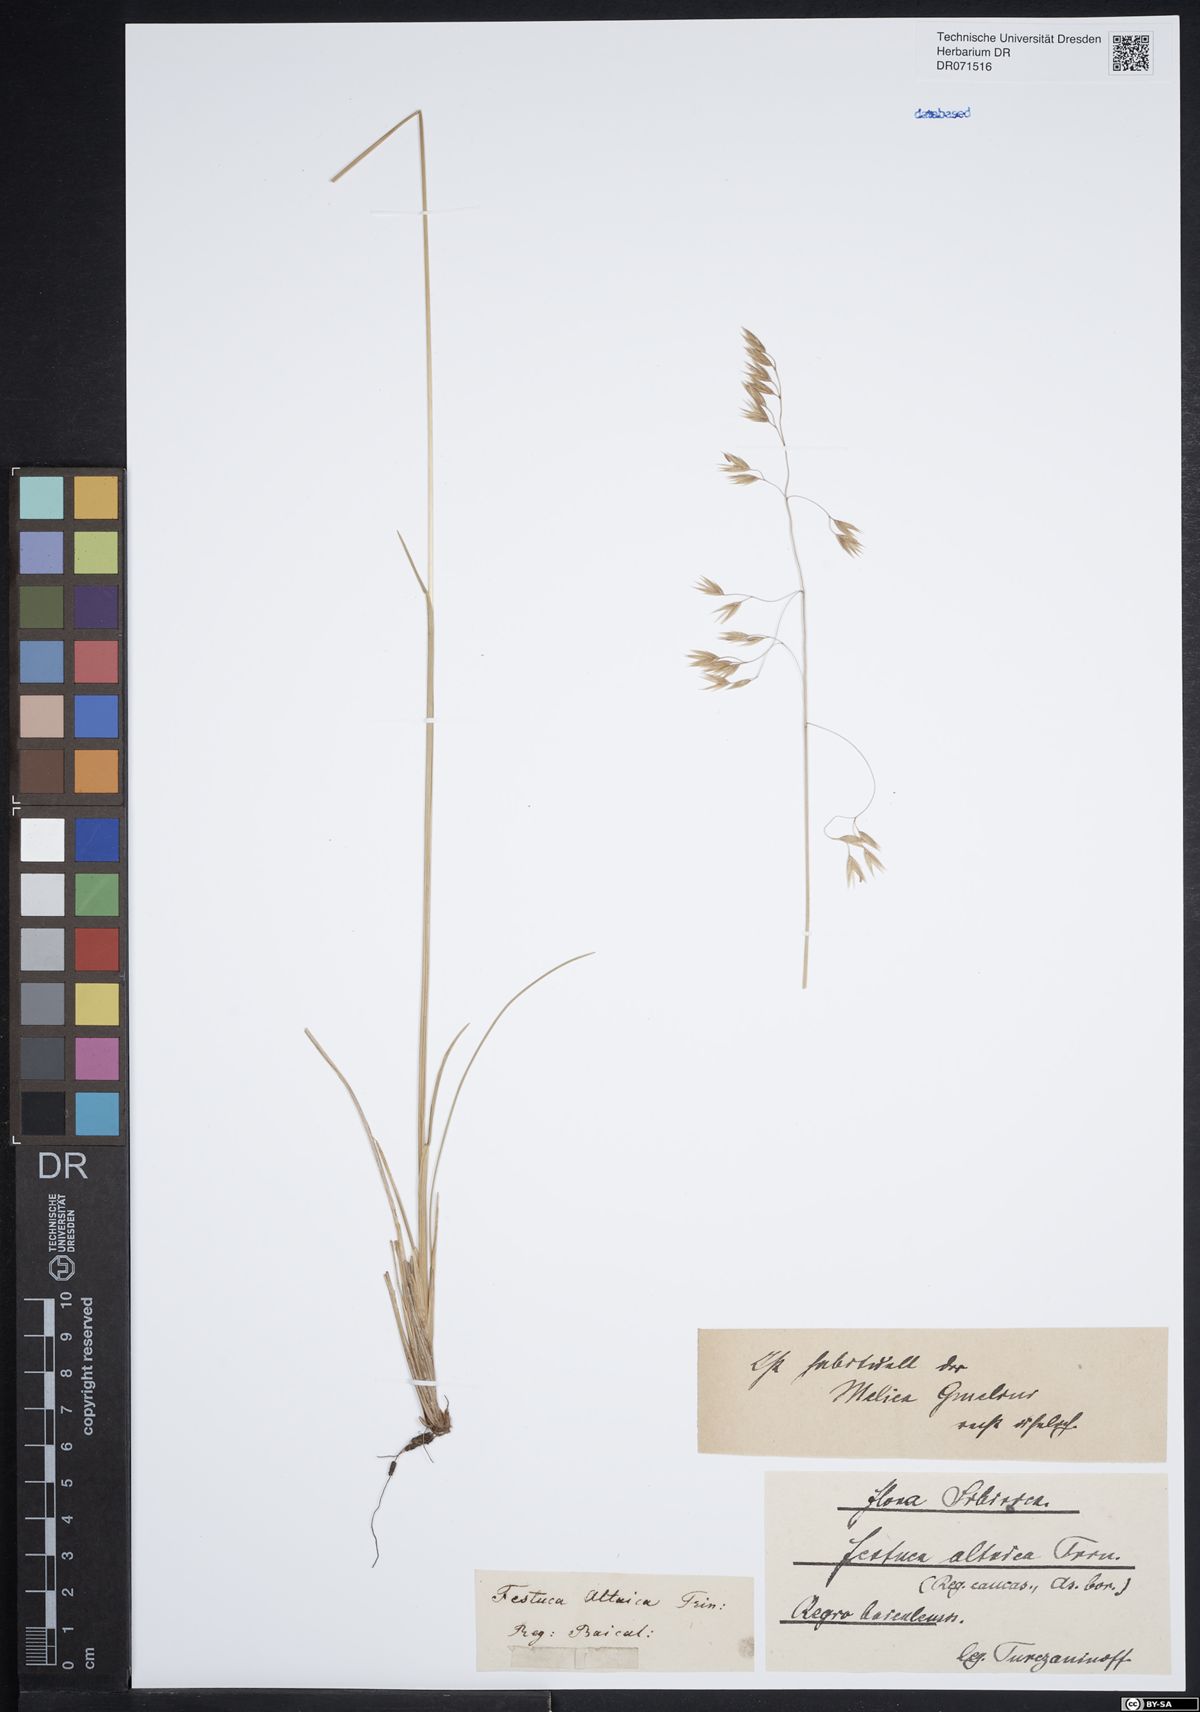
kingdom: Plantae
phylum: Tracheophyta
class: Liliopsida
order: Poales
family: Poaceae
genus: Festuca
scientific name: Festuca altaica
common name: Northern rough fescue
